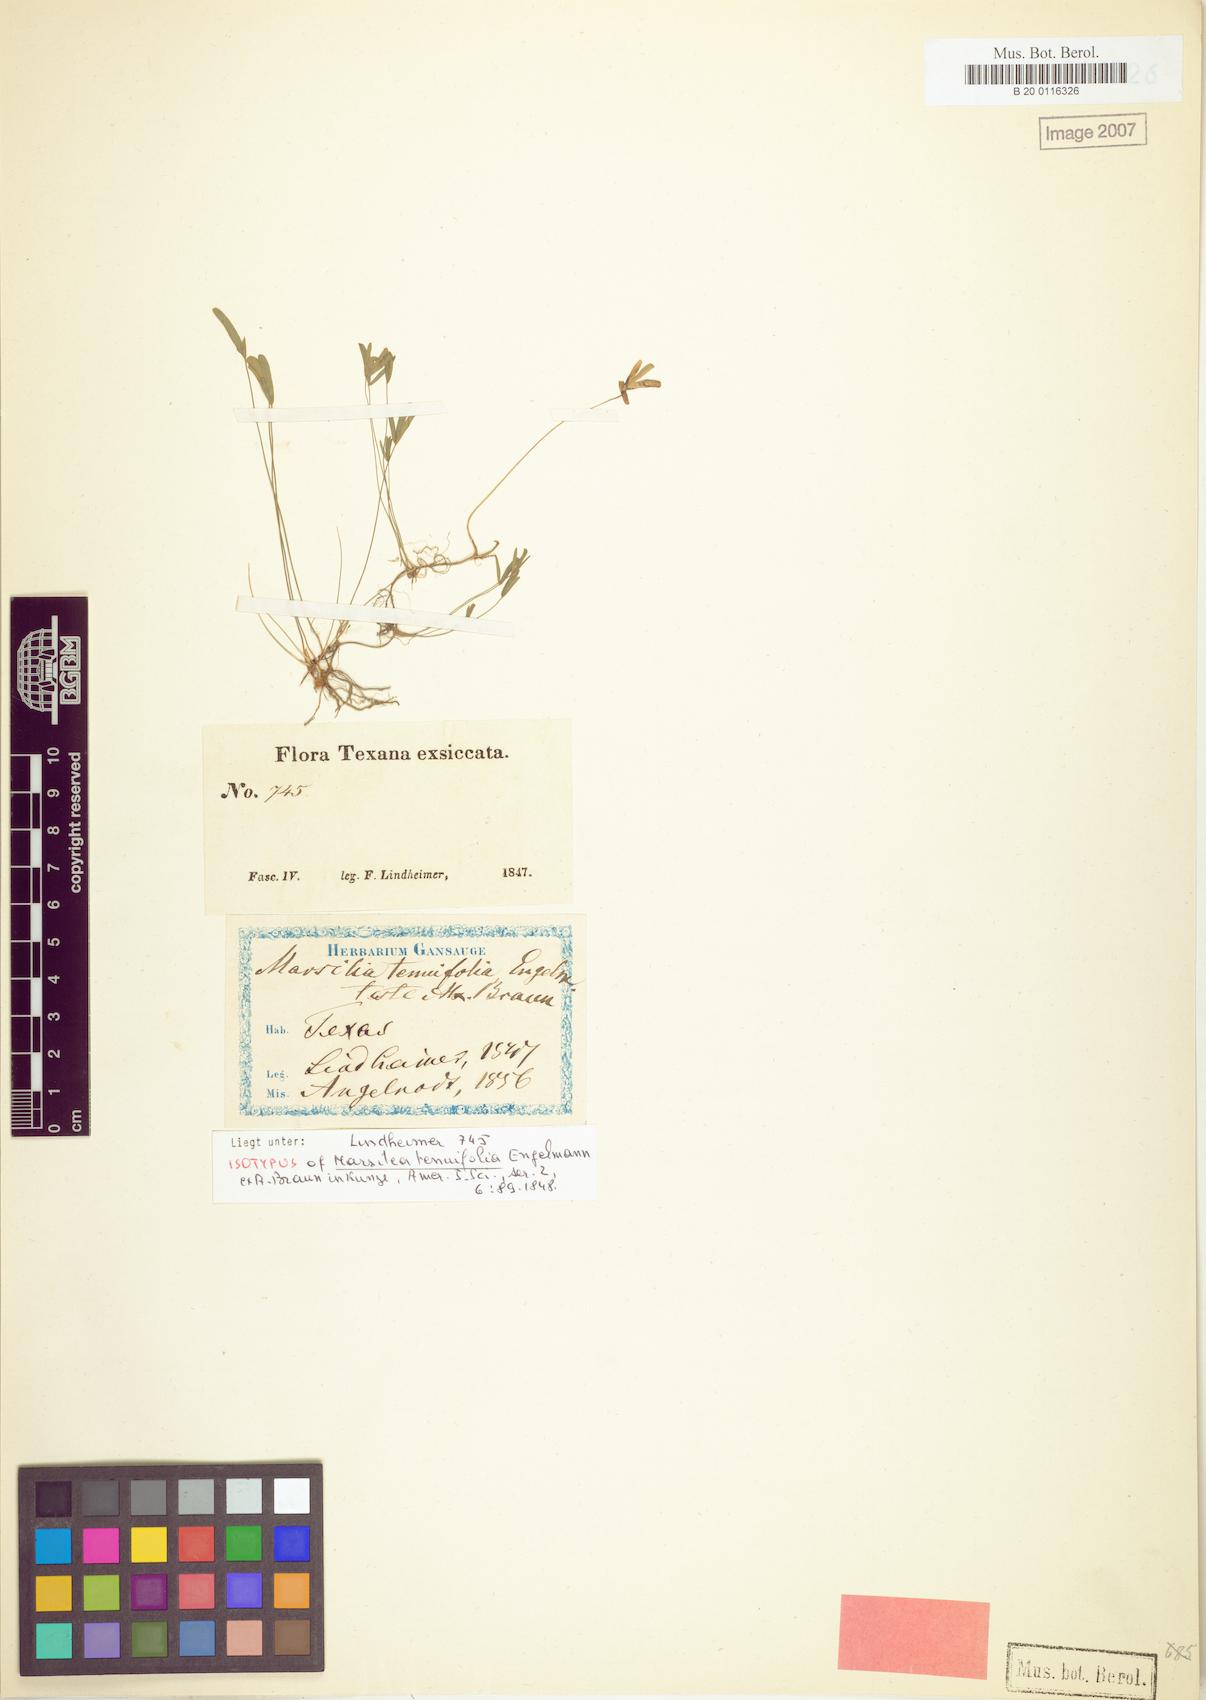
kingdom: Plantae
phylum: Tracheophyta
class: Polypodiopsida
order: Salviniales
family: Marsileaceae
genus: Marsilea
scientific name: Marsilea vestita
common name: Hooked-pepperwort
